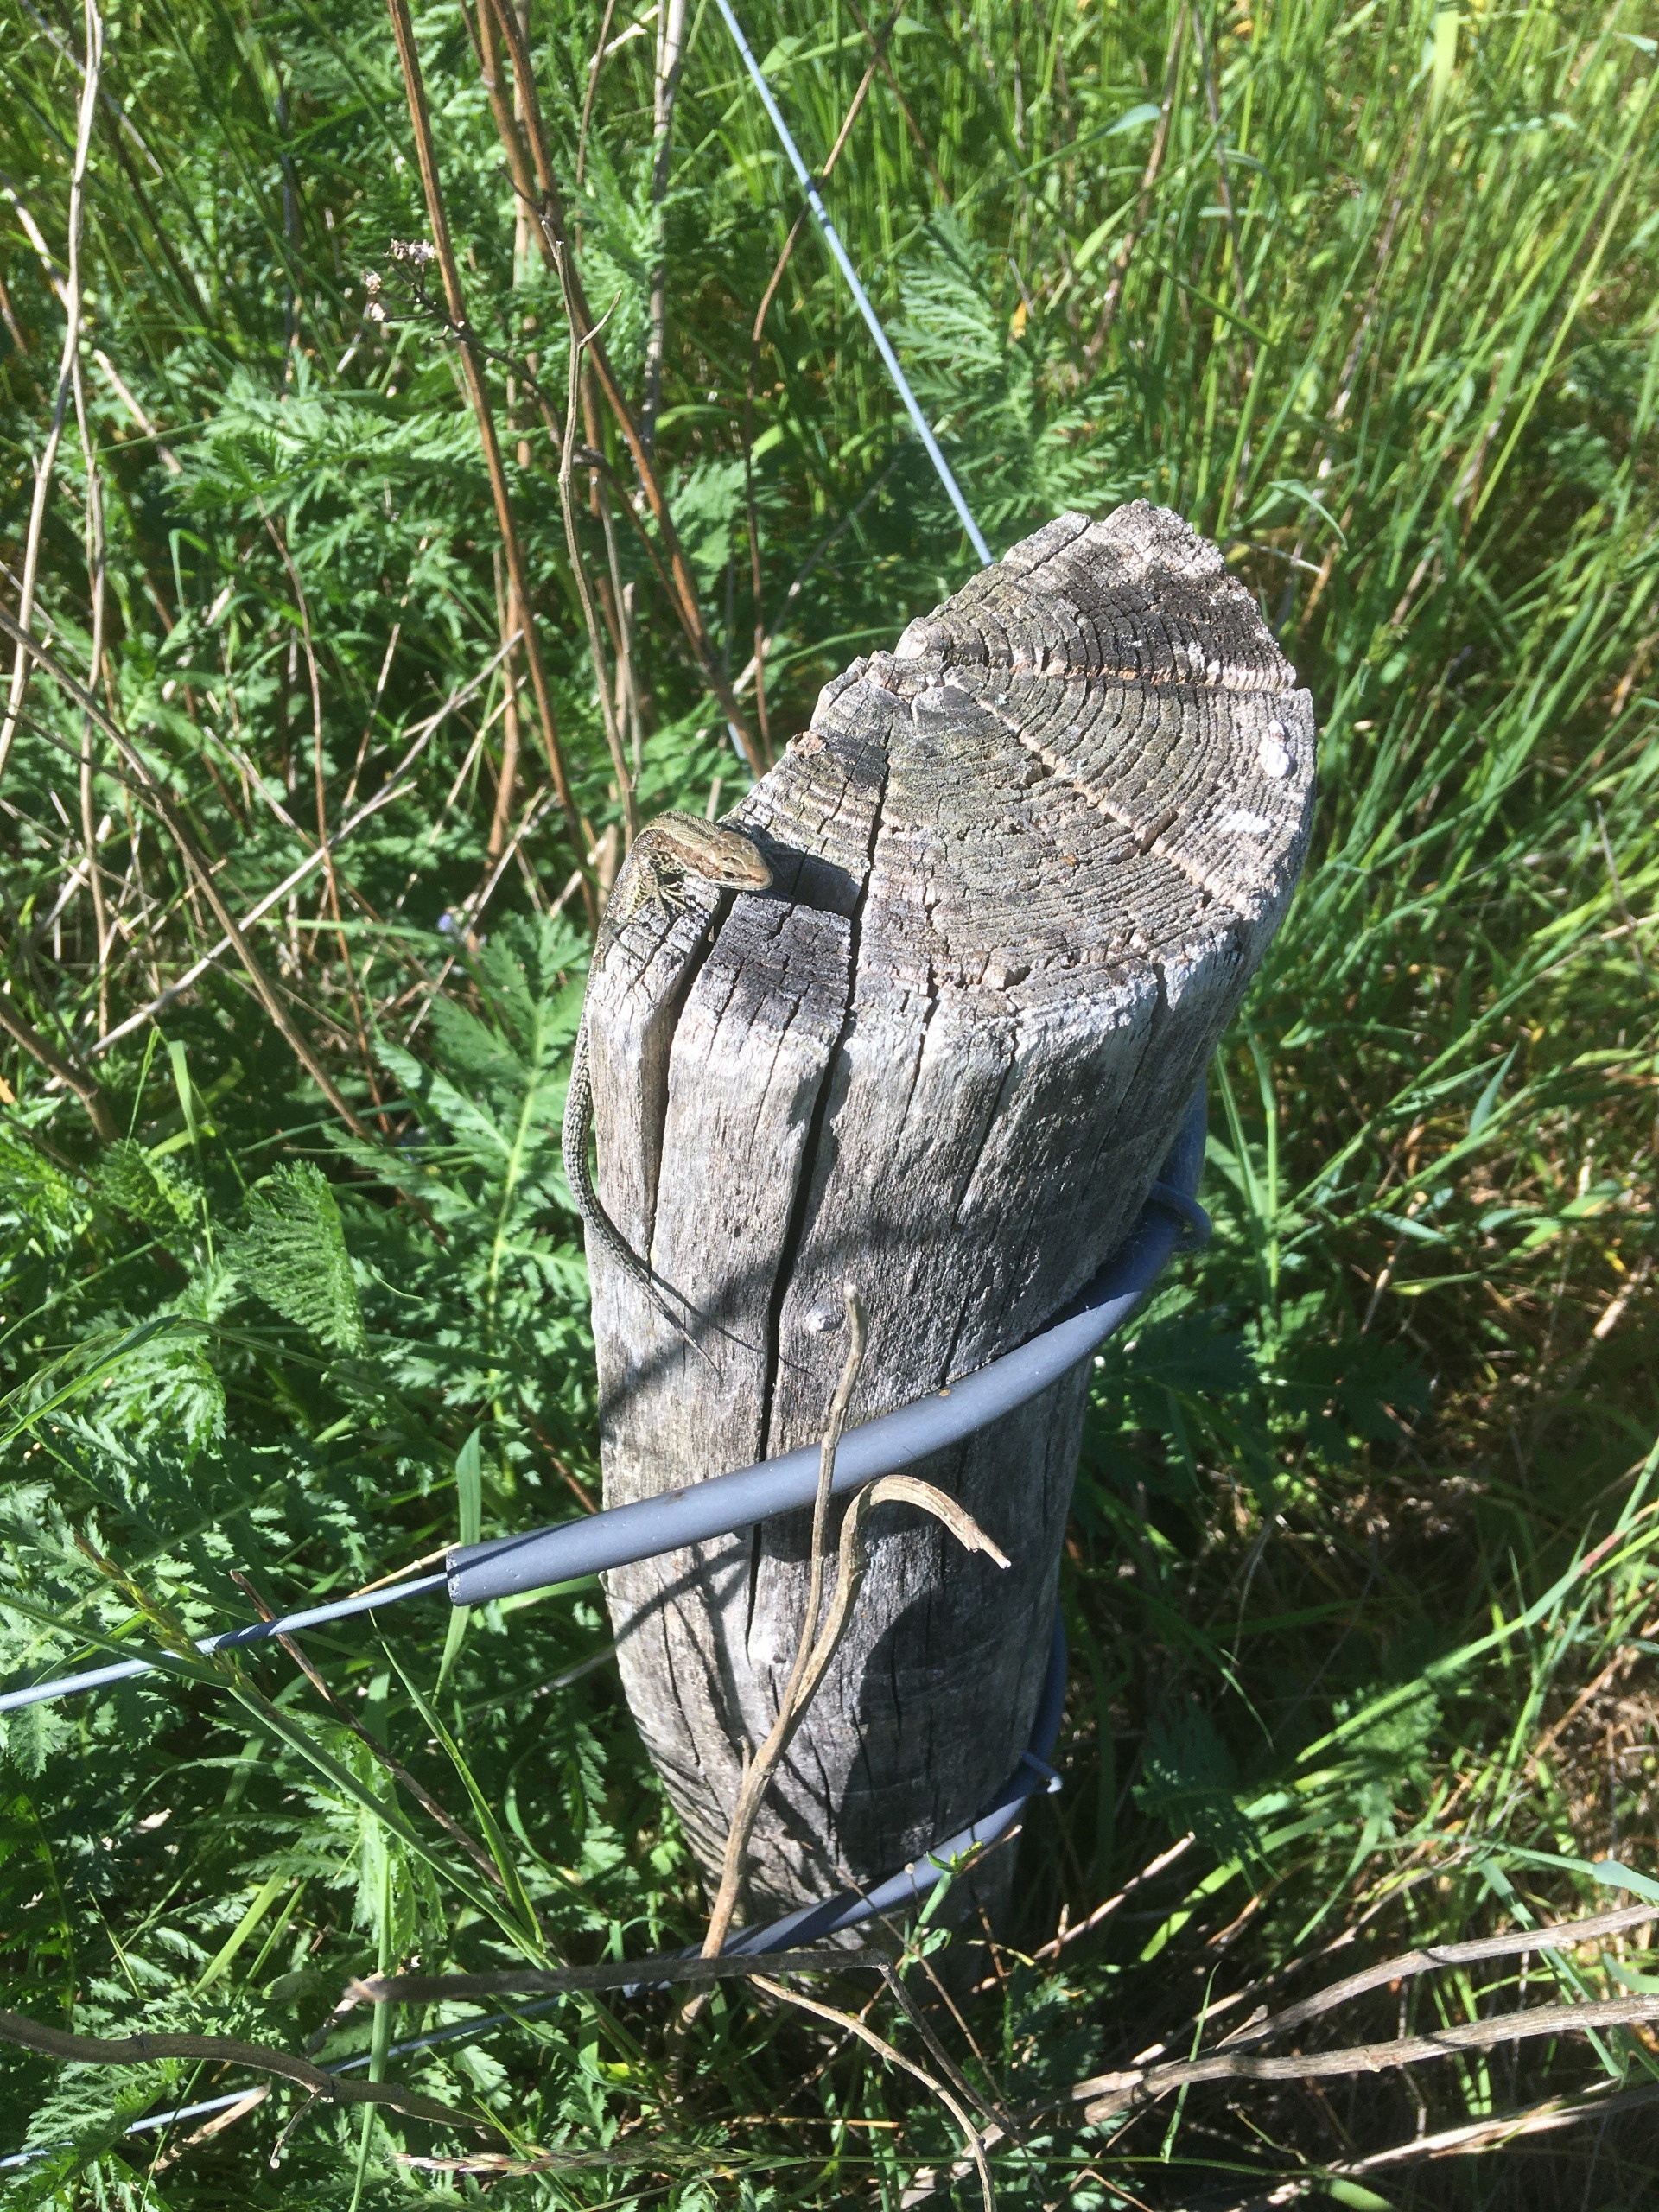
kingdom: Animalia
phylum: Chordata
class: Squamata
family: Lacertidae
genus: Zootoca
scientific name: Zootoca vivipara
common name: Skovfirben
